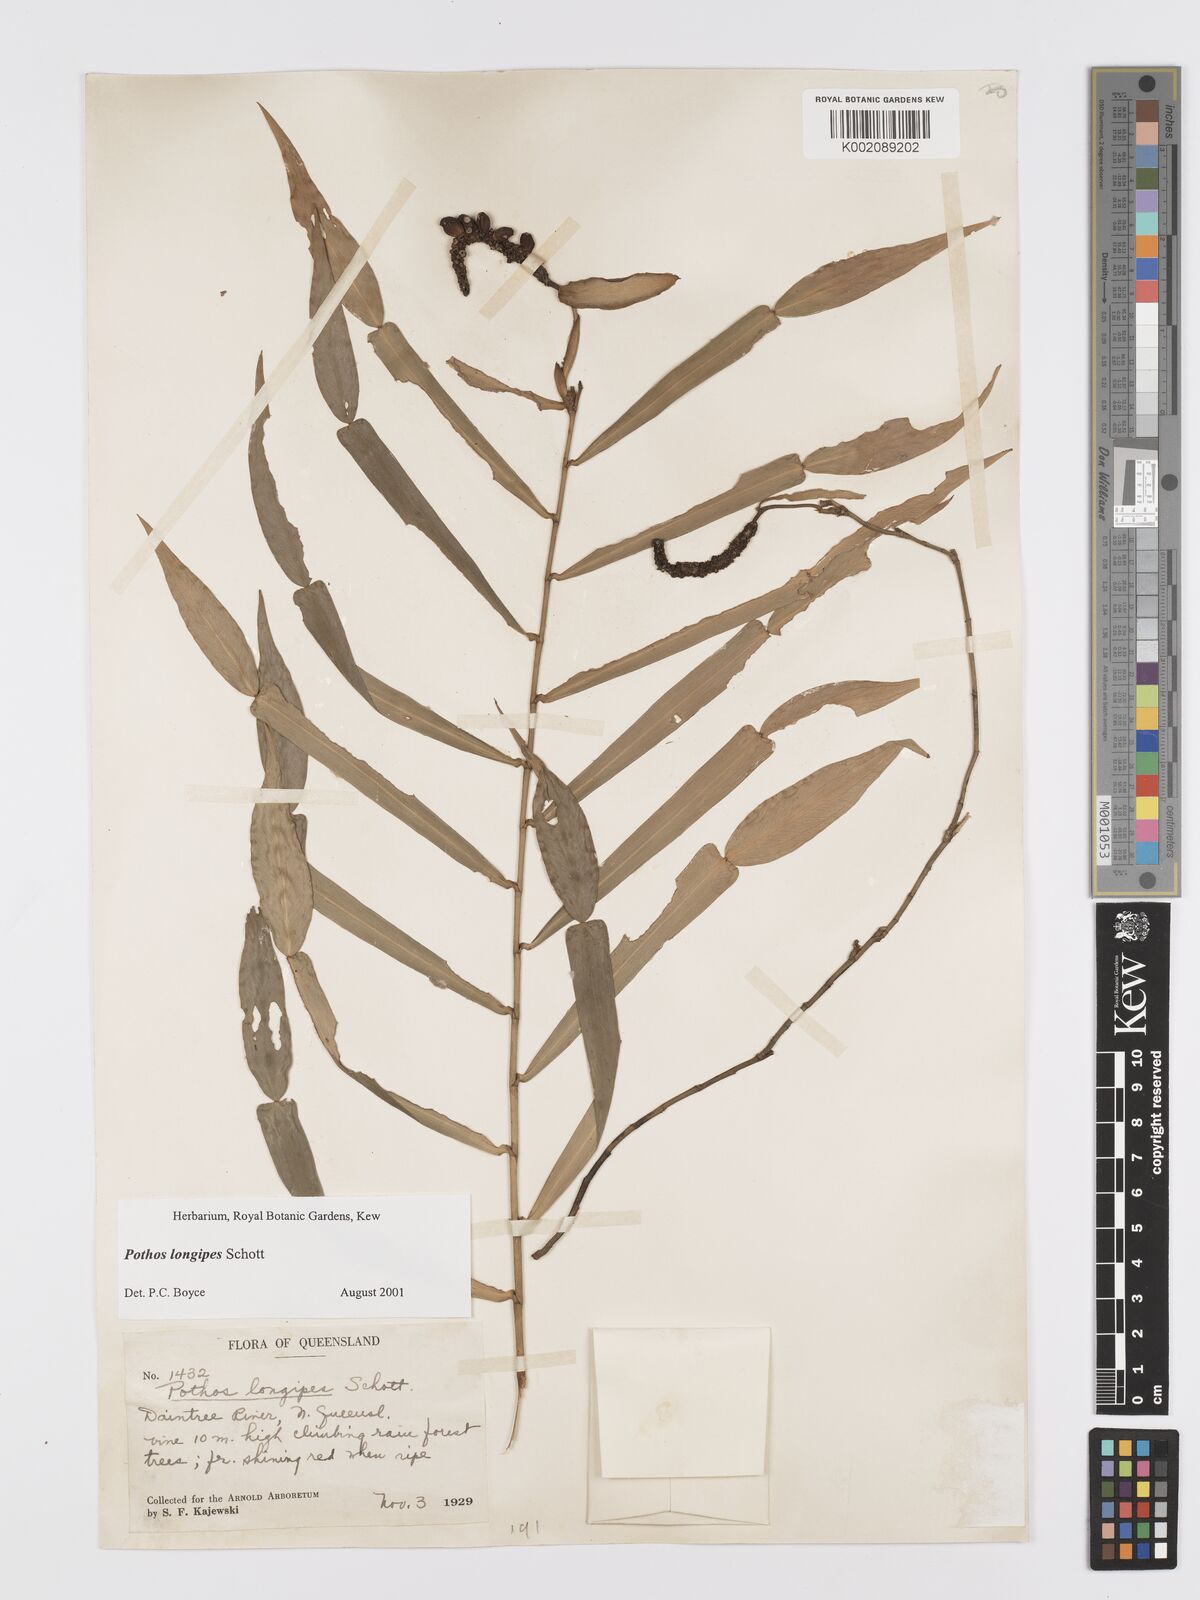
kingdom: Plantae
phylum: Tracheophyta
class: Liliopsida
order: Alismatales
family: Araceae
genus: Pothos
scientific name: Pothos longipes
